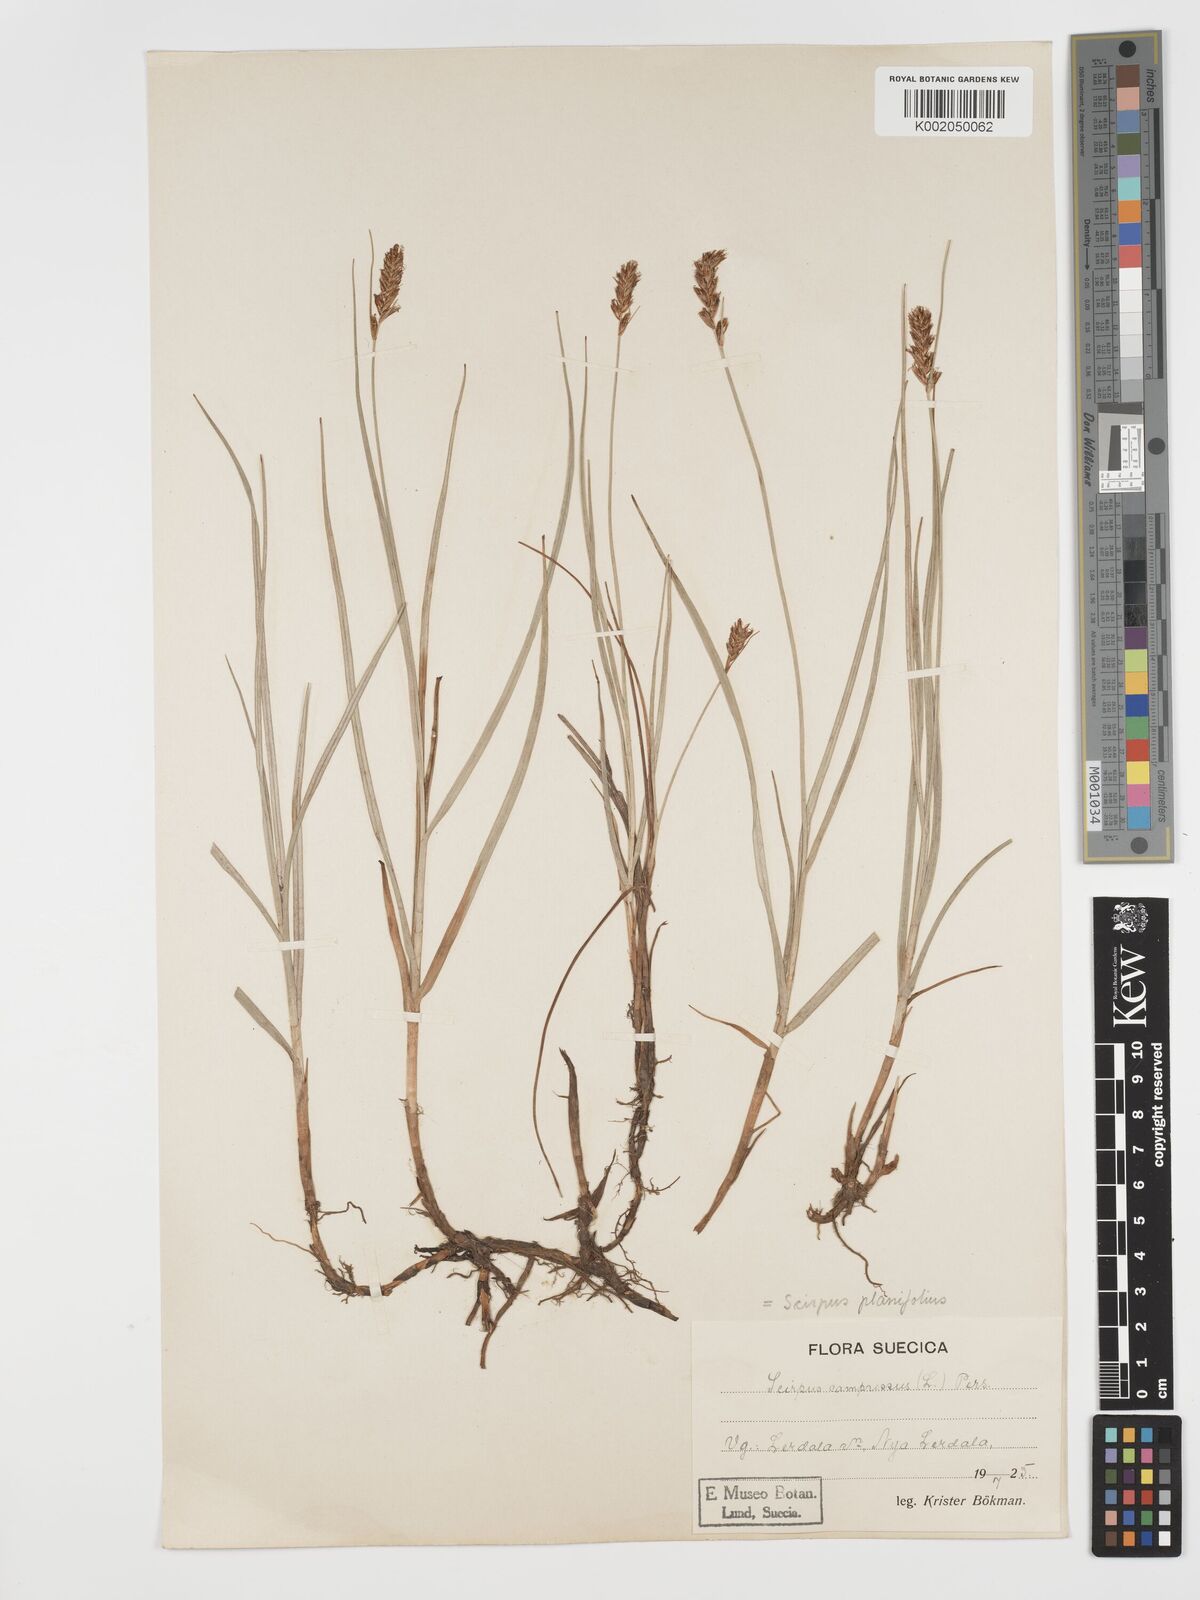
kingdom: Plantae
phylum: Tracheophyta
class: Liliopsida
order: Poales
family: Cyperaceae
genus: Blysmus
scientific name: Blysmus compressus
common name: Flat-sedge
